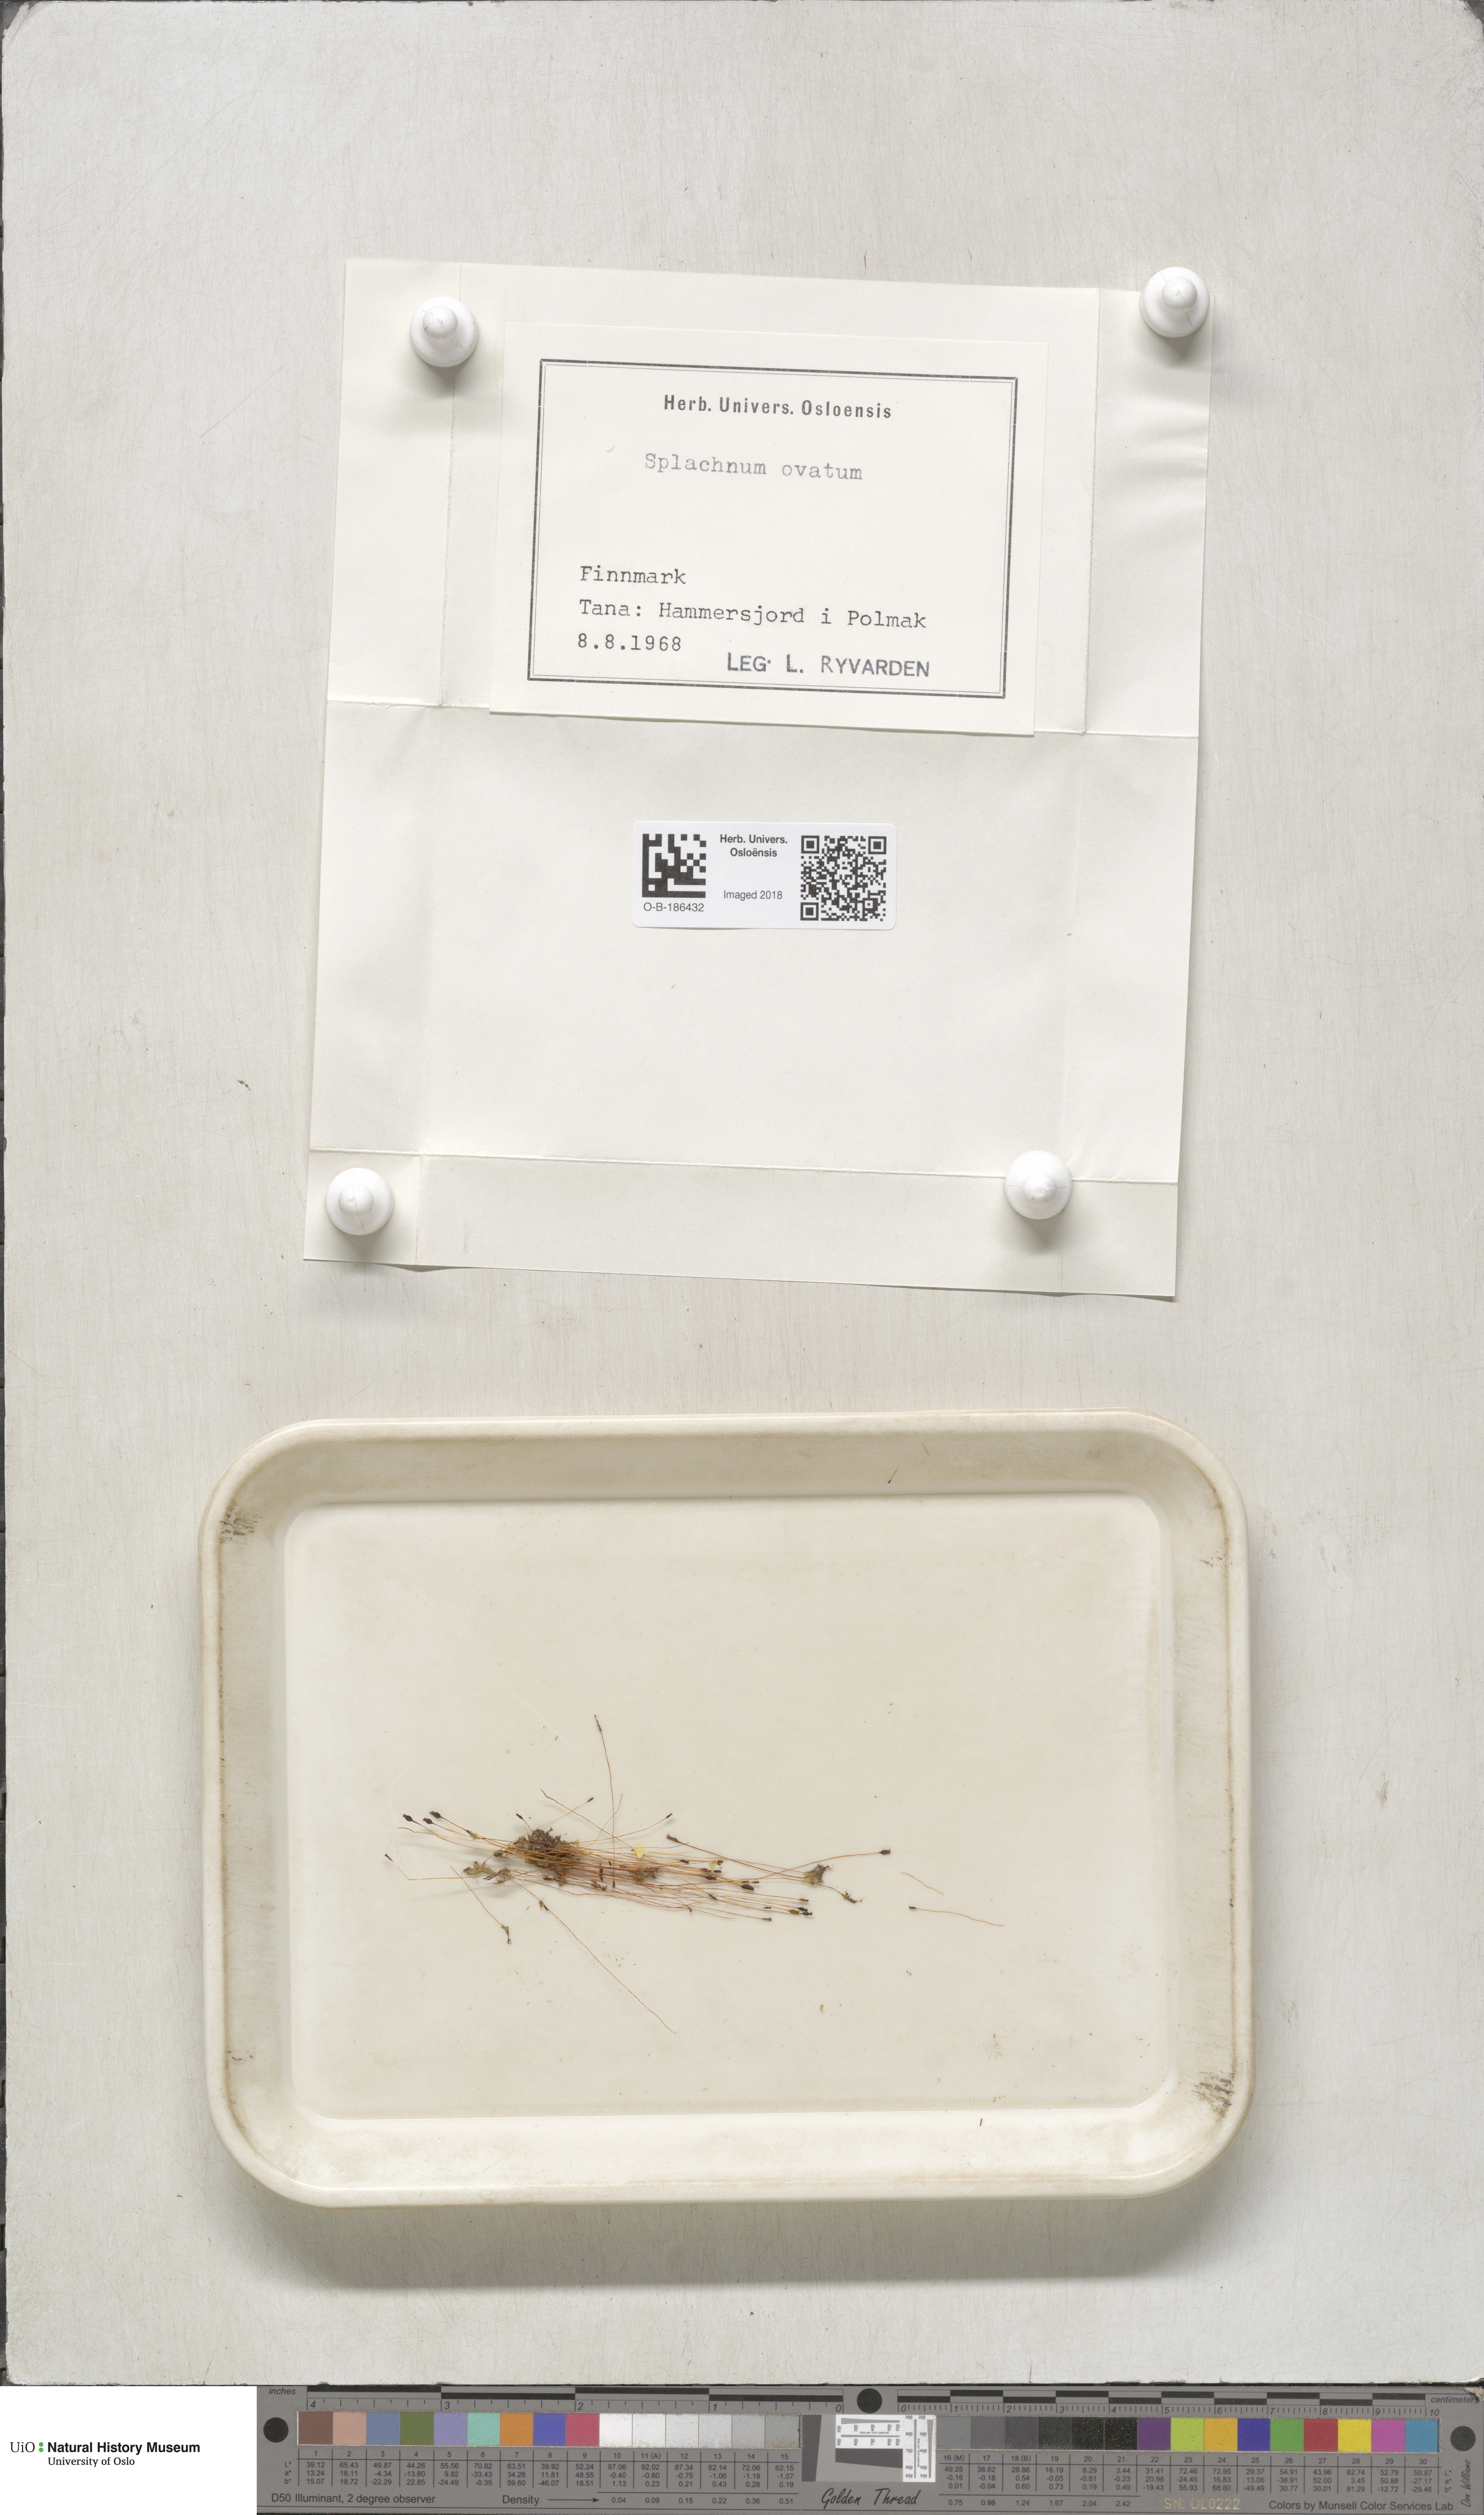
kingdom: Plantae
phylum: Bryophyta
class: Bryopsida
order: Splachnales
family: Splachnaceae
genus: Splachnum
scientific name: Splachnum sphaericum
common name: Round-fruited dung moss
